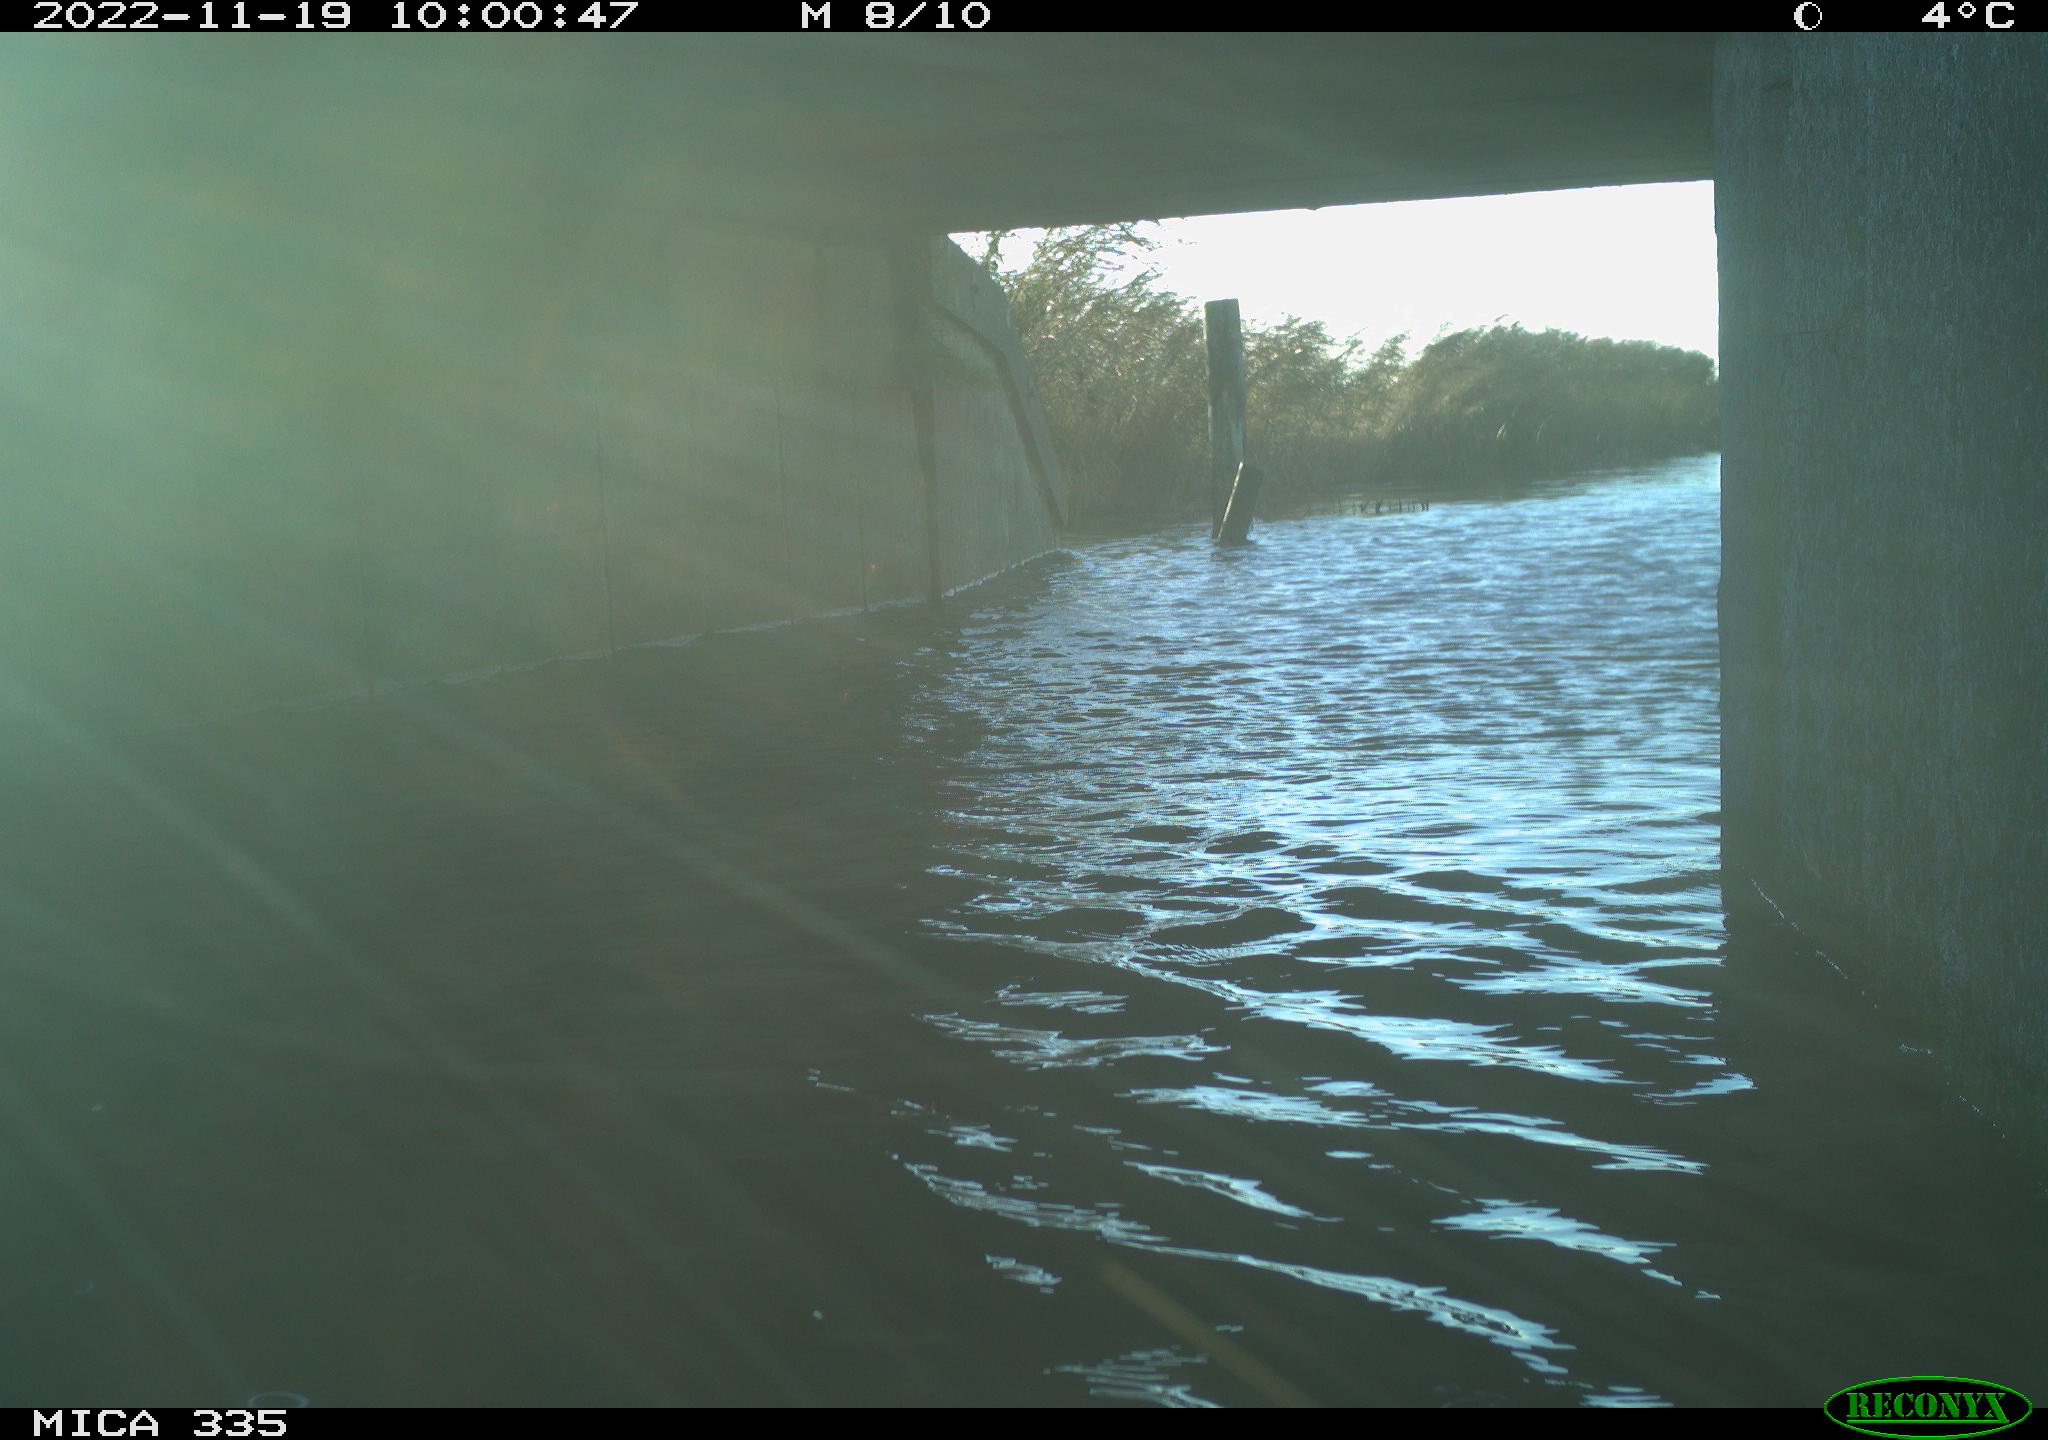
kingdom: Animalia
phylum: Chordata
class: Aves
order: Anseriformes
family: Anatidae
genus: Anas
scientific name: Anas
